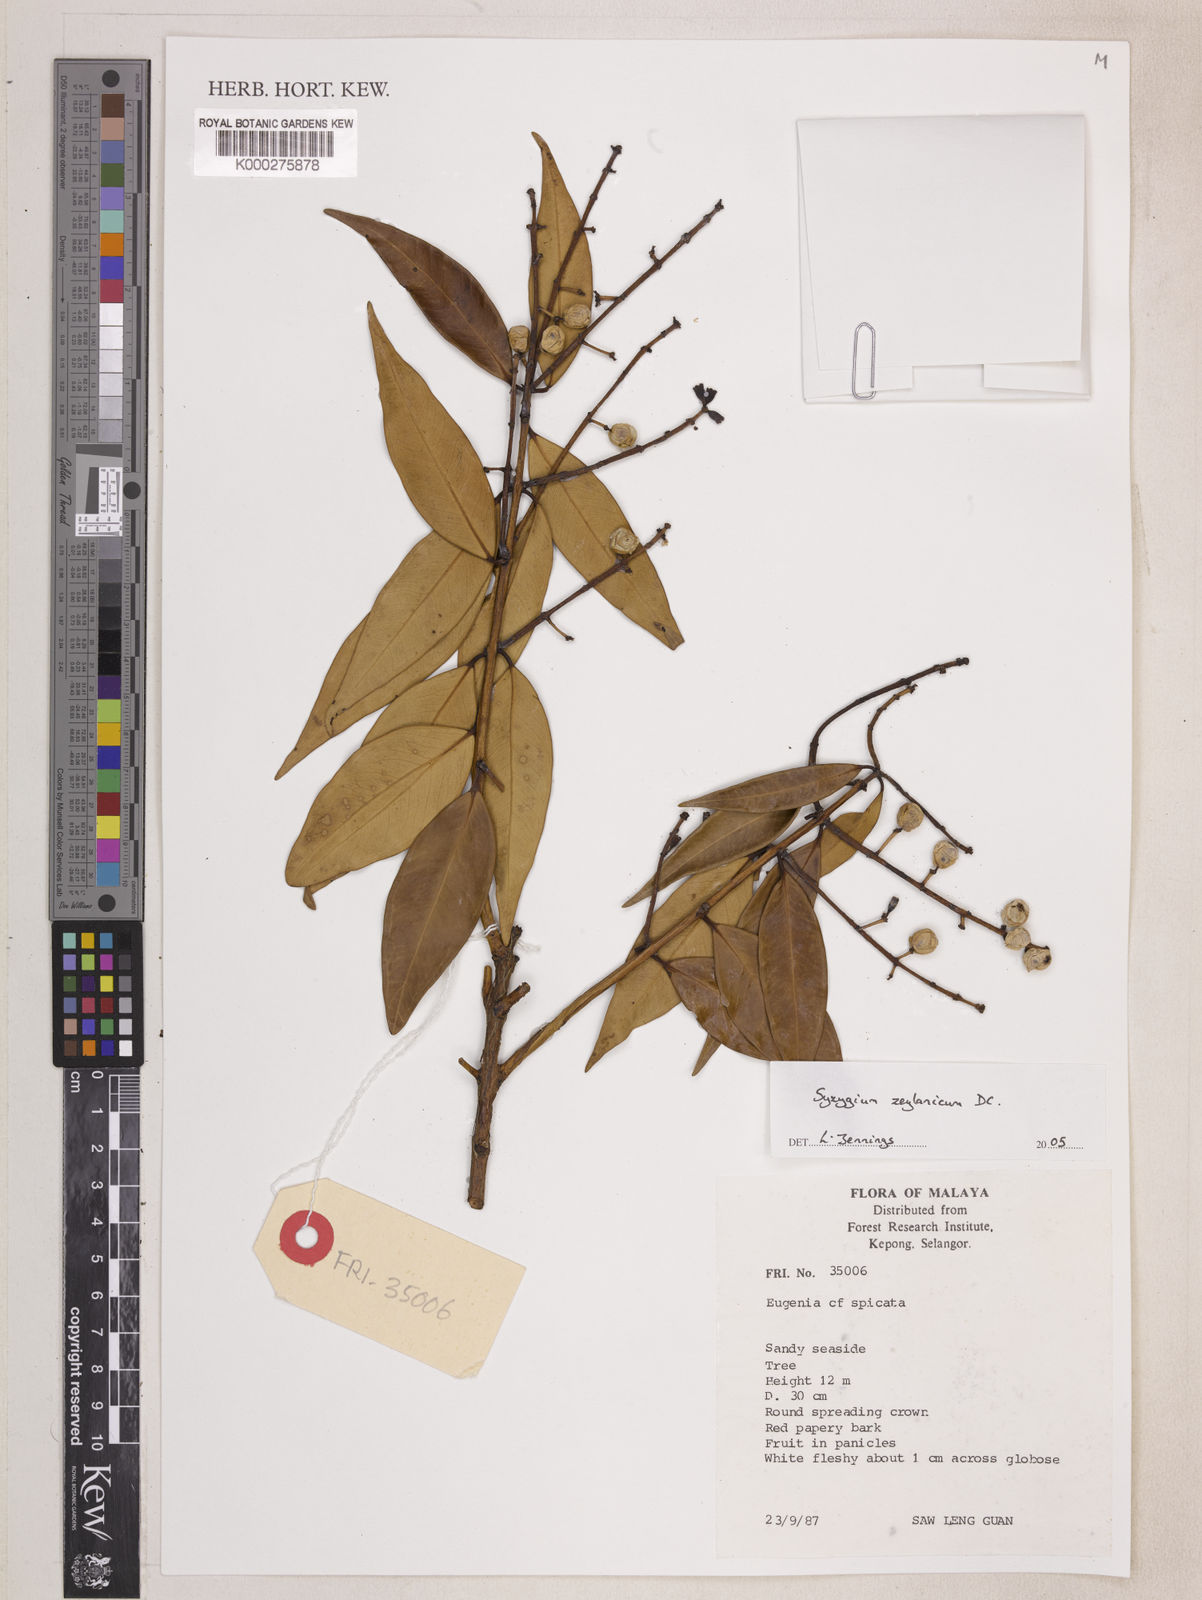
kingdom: Plantae
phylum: Tracheophyta
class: Magnoliopsida
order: Myrtales
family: Myrtaceae
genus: Syzygium
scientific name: Syzygium zeylanicum
